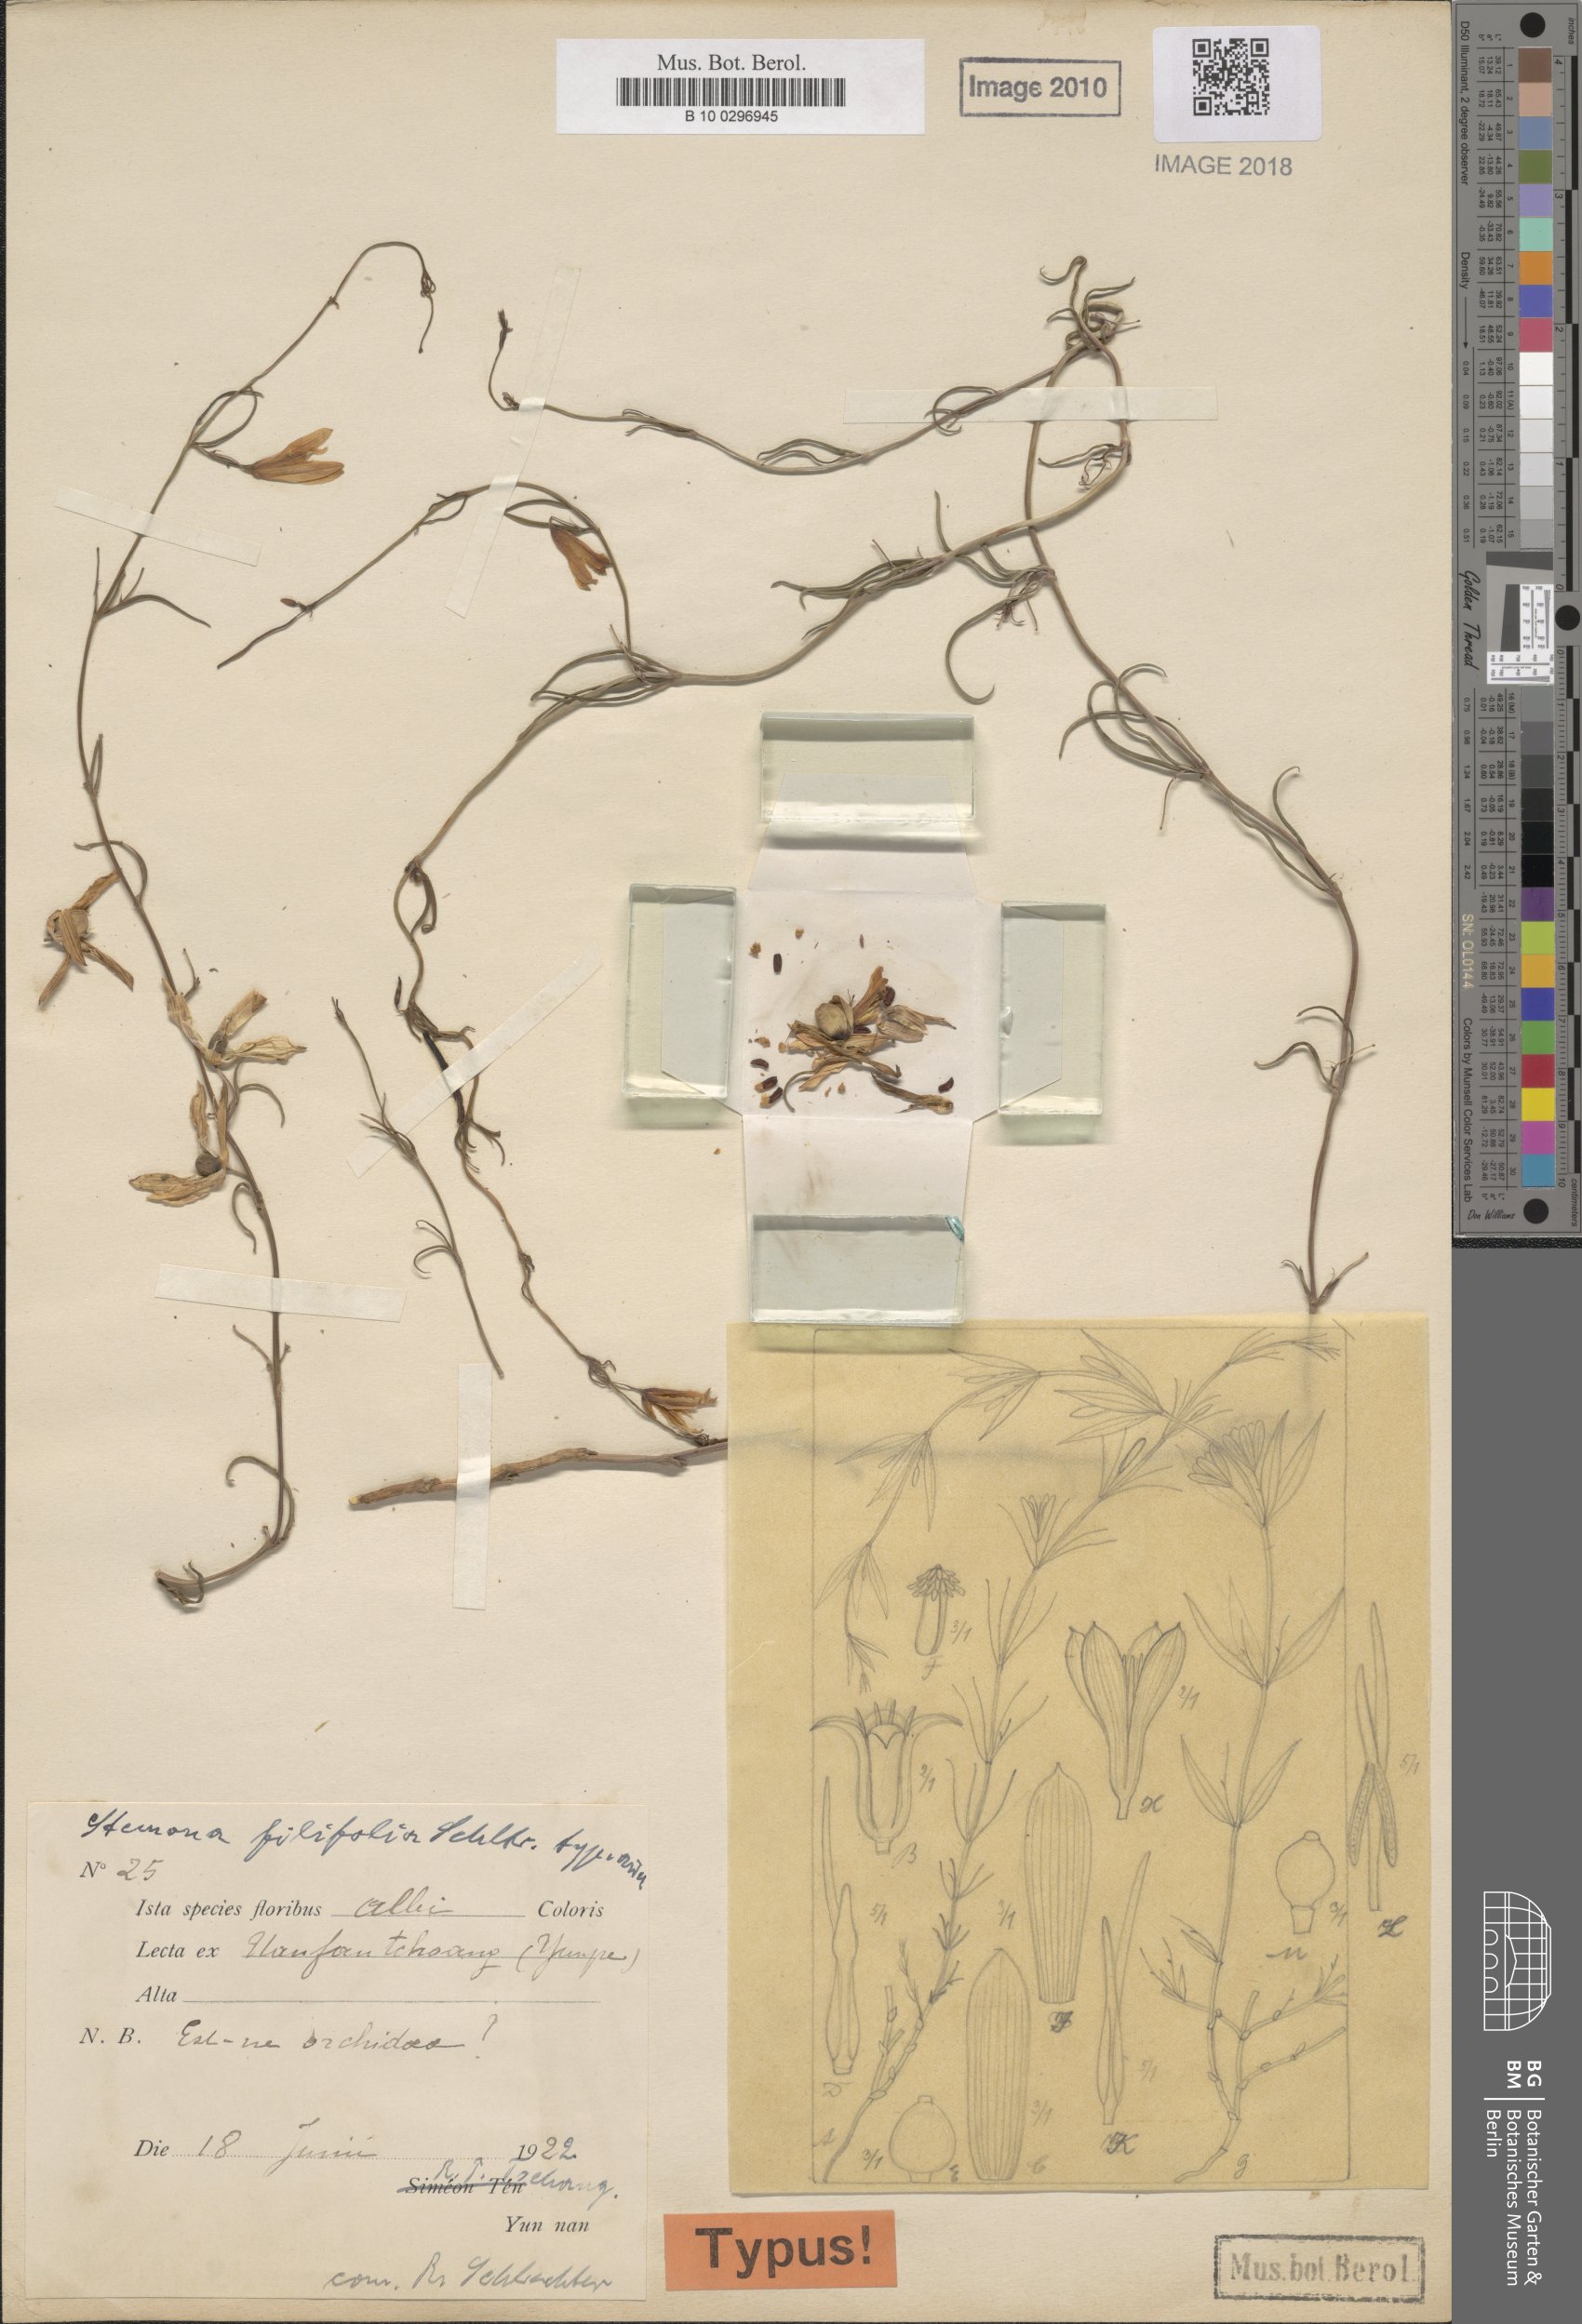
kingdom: Plantae
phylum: Tracheophyta
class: Liliopsida
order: Pandanales
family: Stemonaceae
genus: Stemona
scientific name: Stemona mairei
